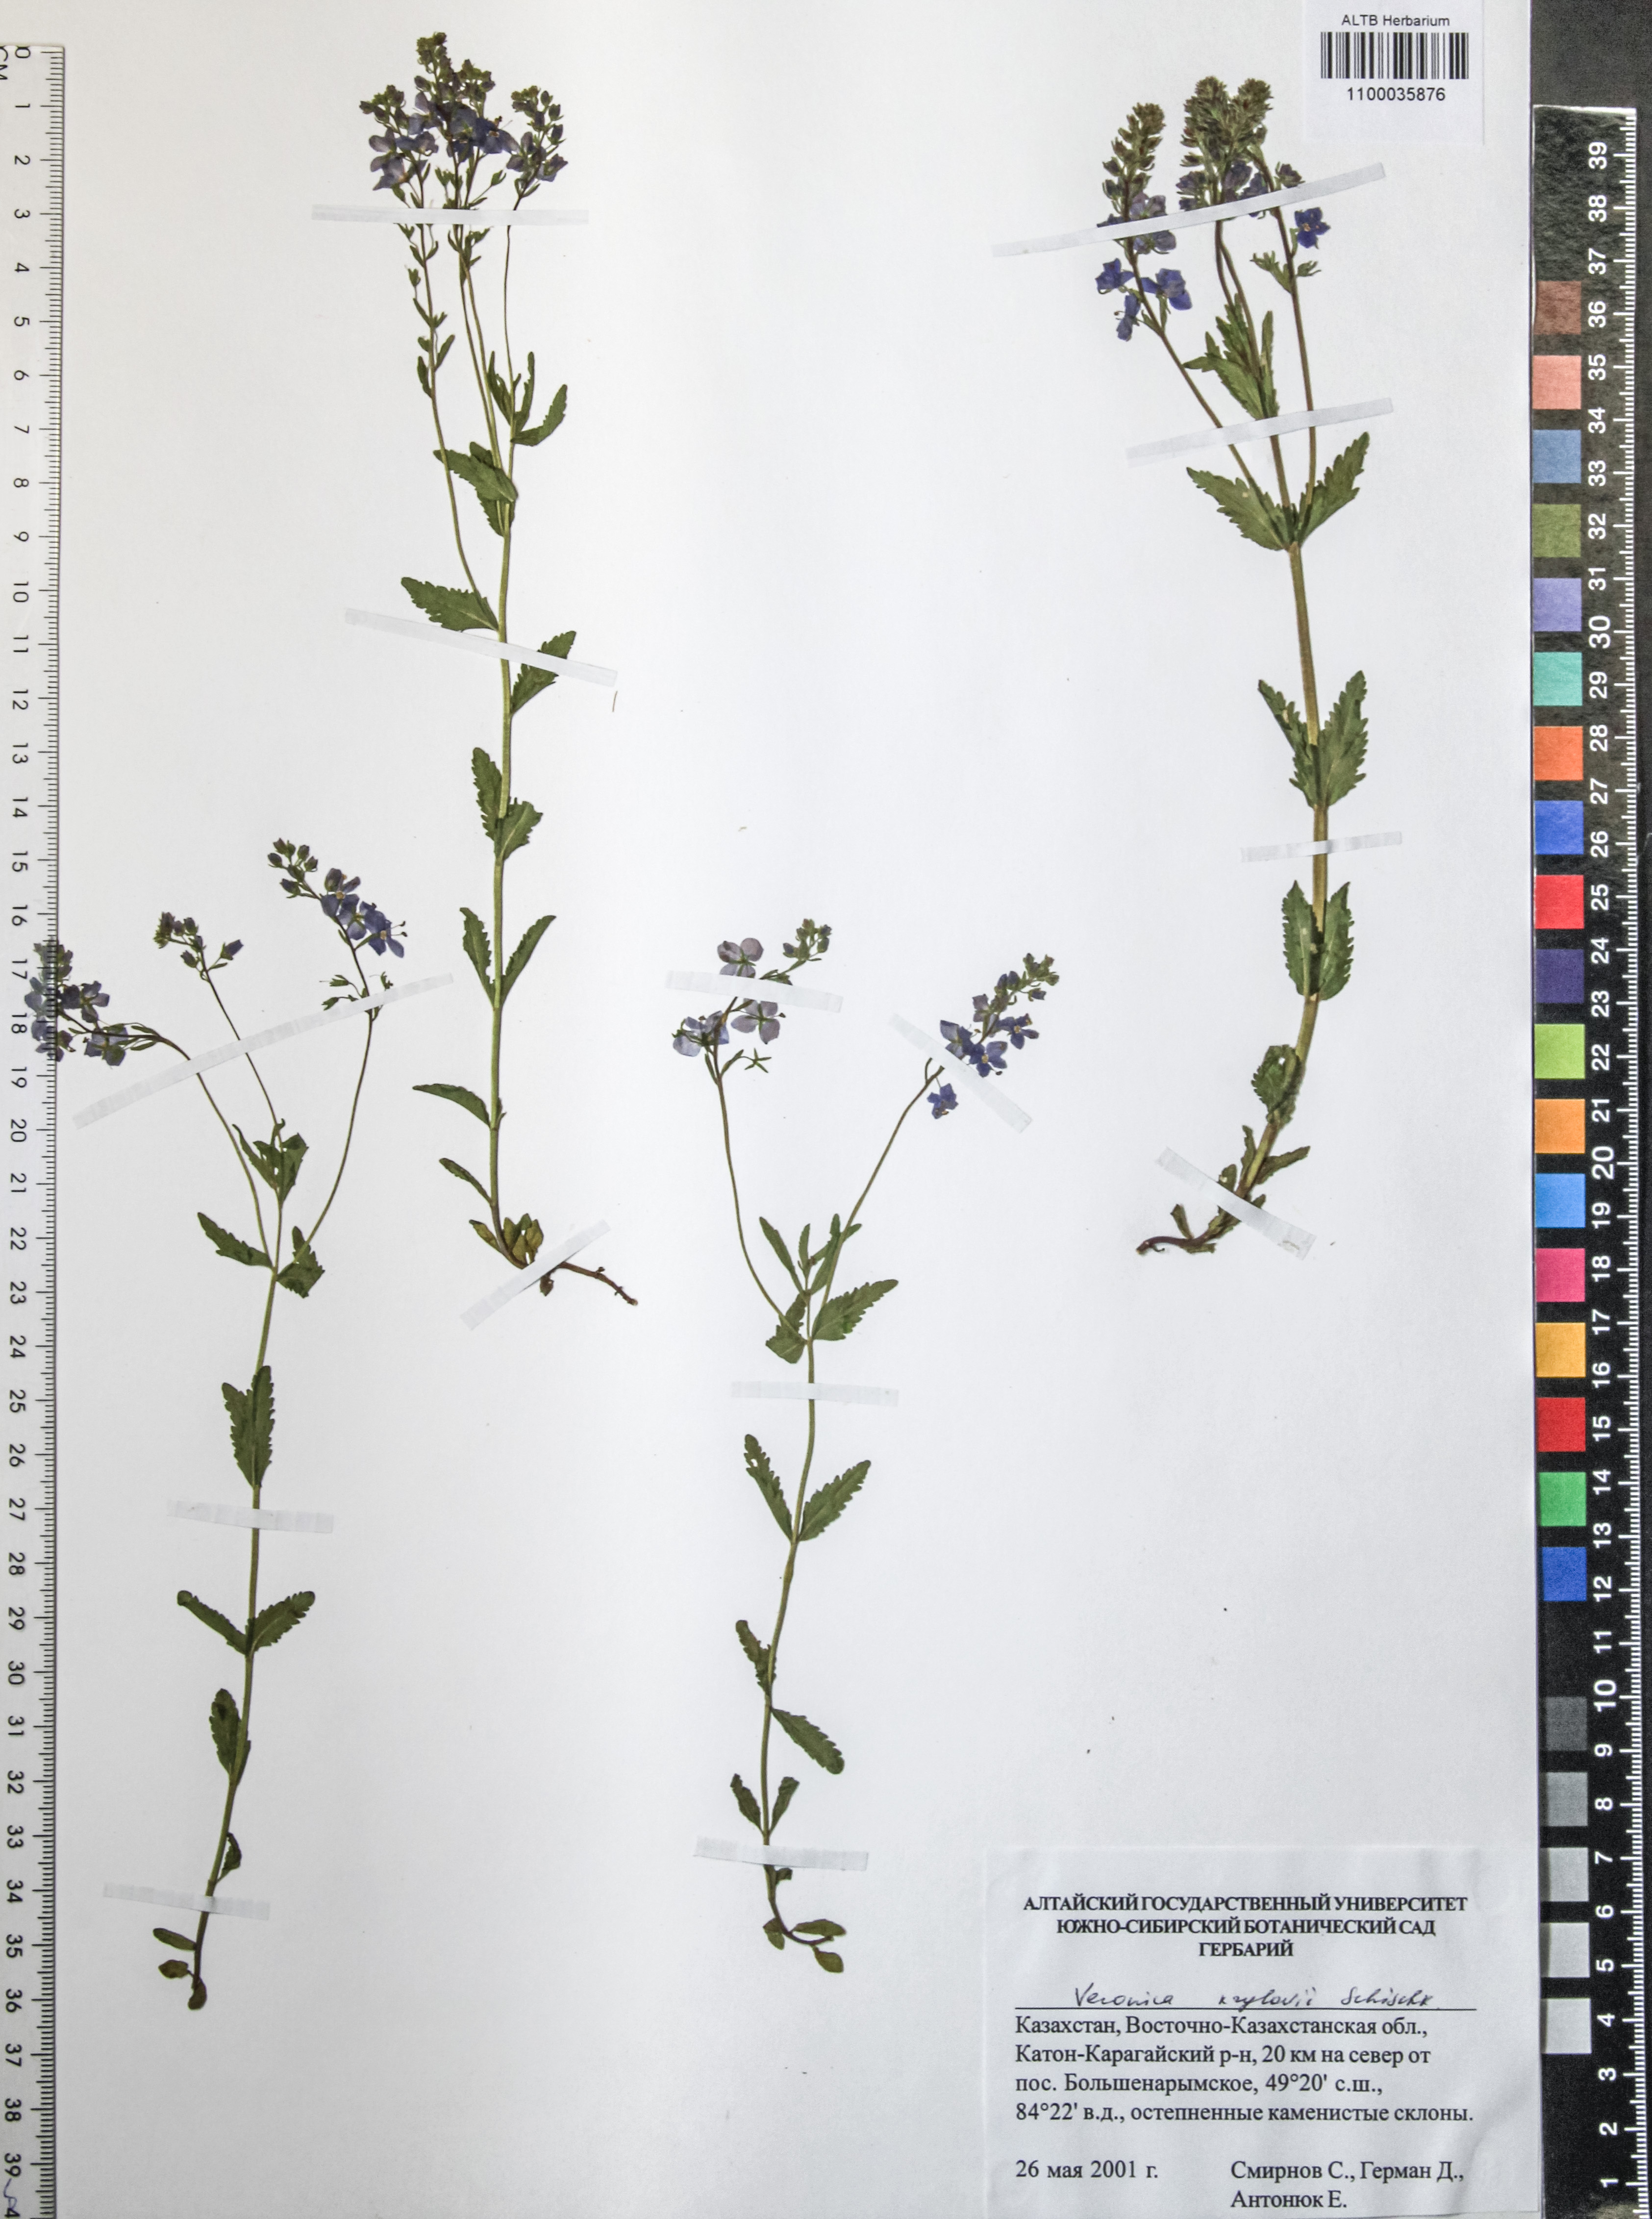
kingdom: Plantae
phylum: Tracheophyta
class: Magnoliopsida
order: Lamiales
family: Plantaginaceae
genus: Veronica
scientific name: Veronica krylovii
